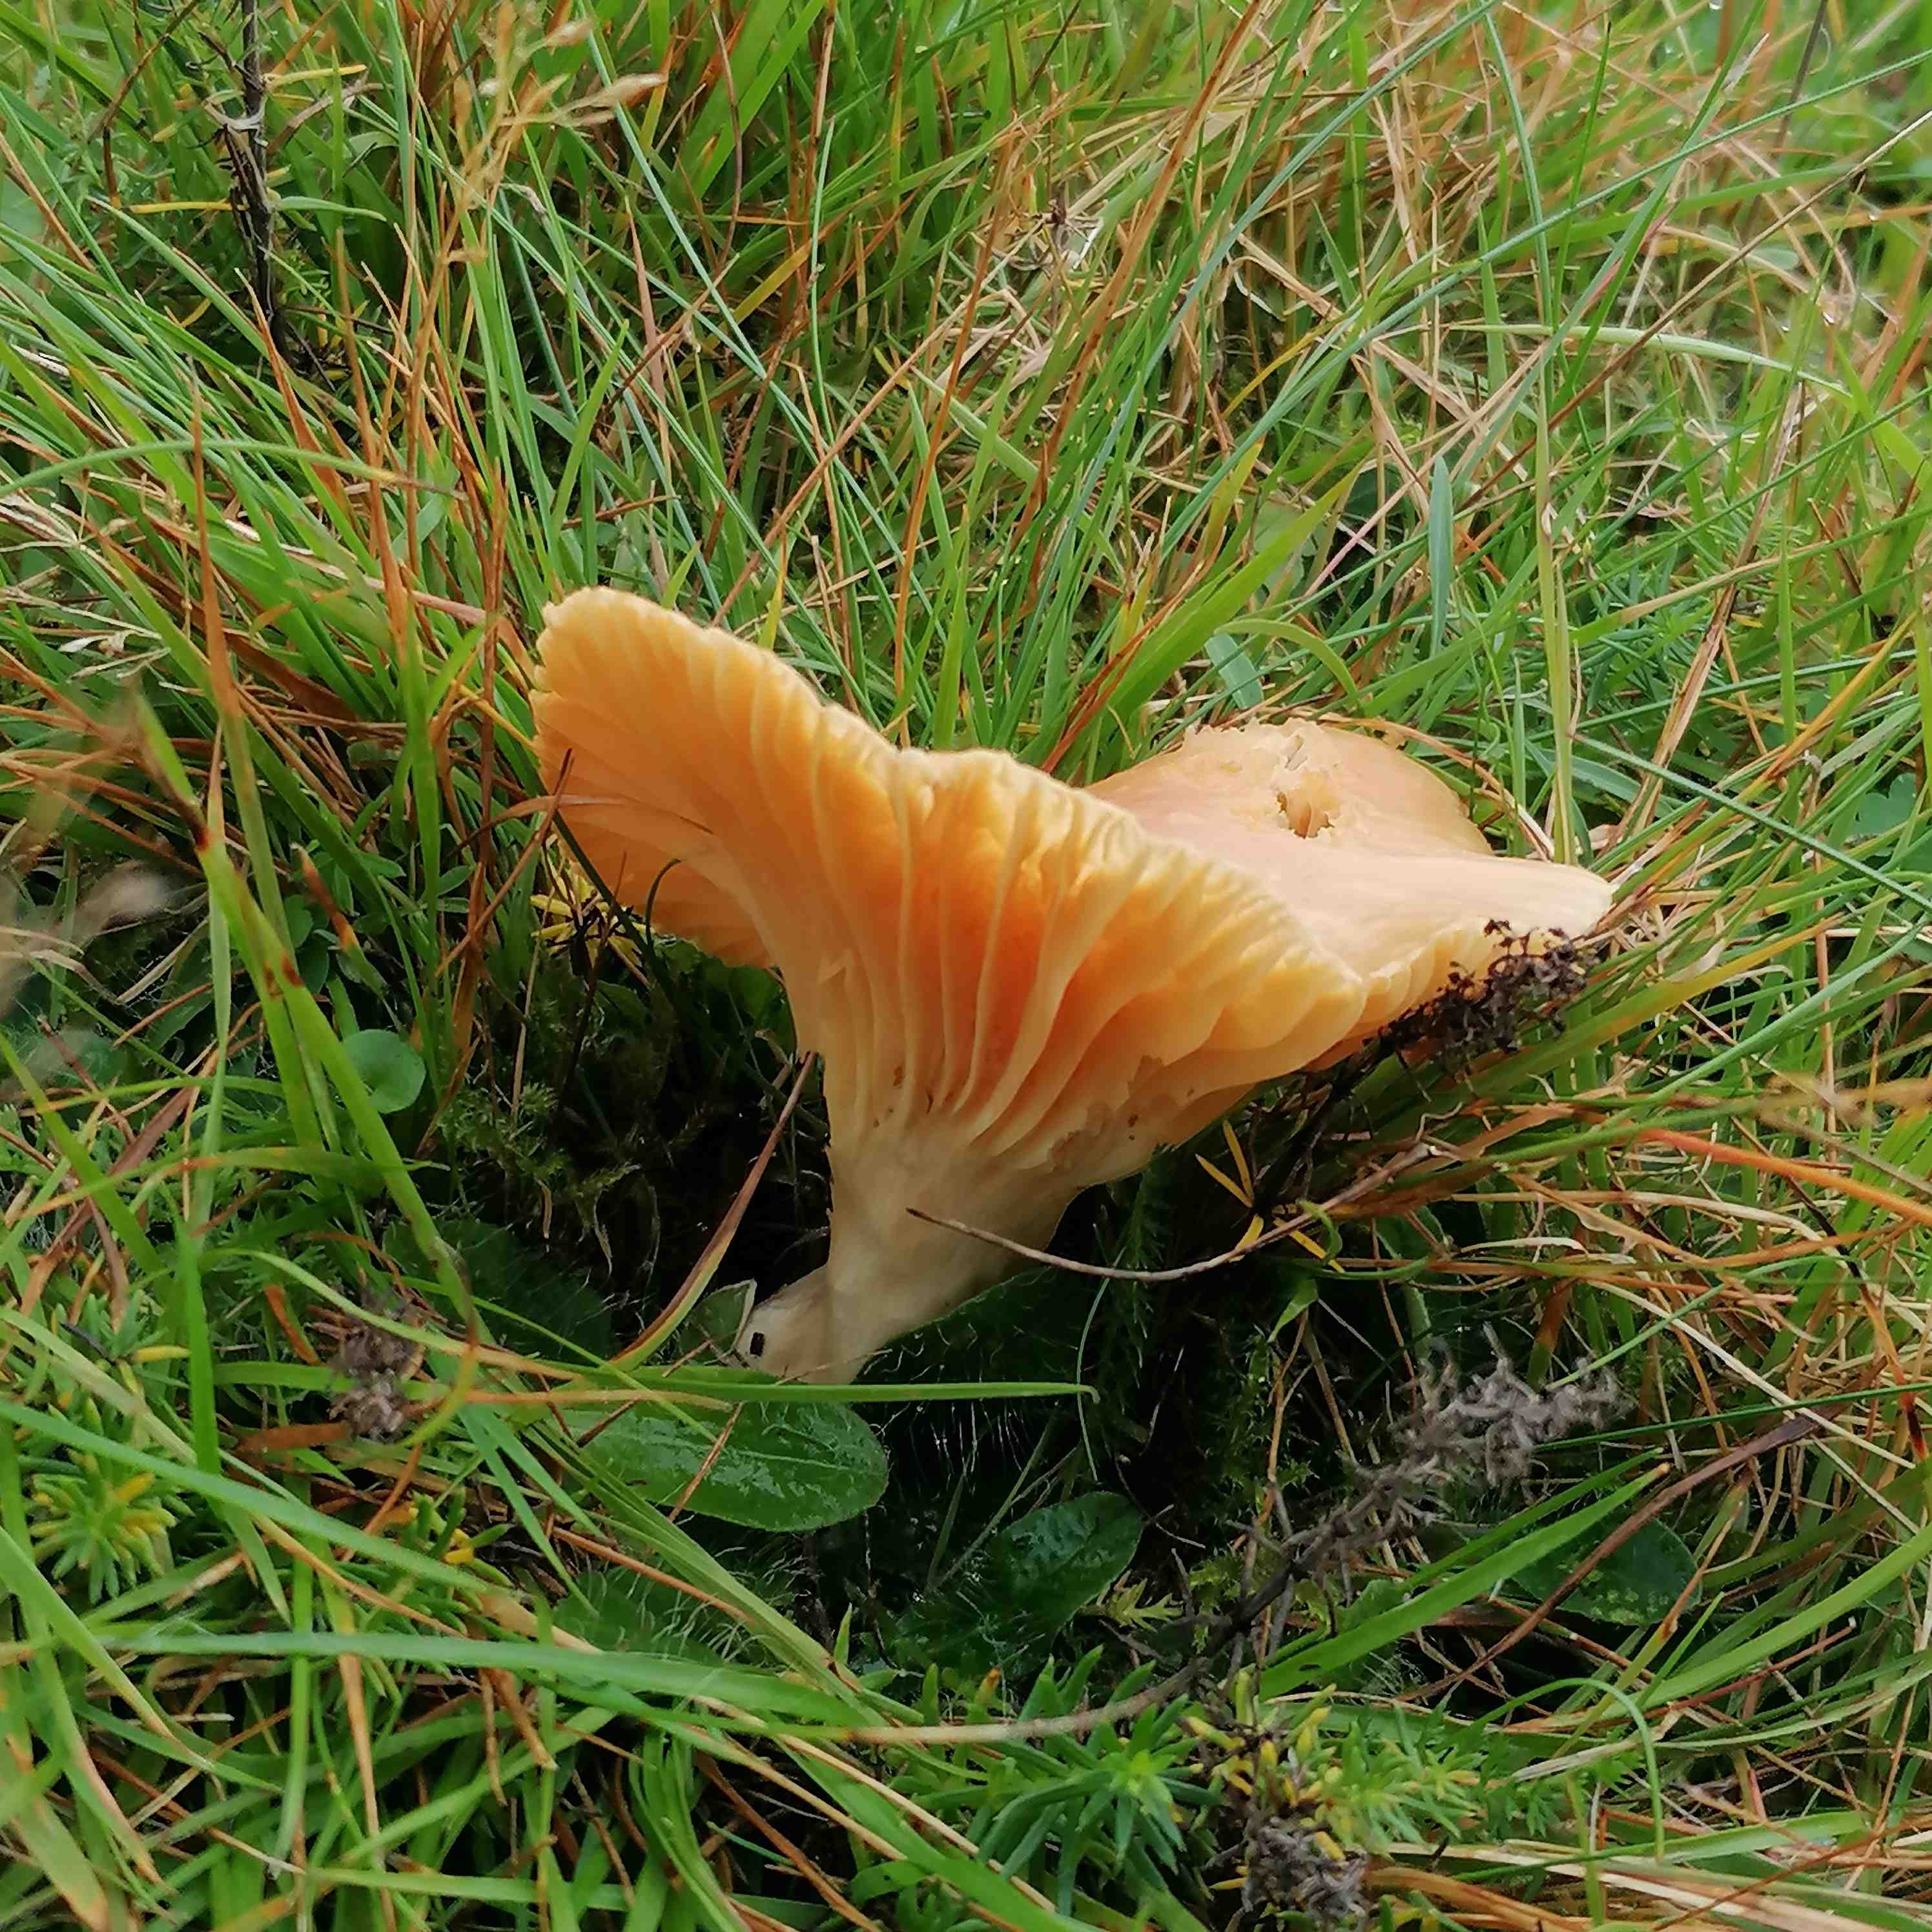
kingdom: Fungi
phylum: Basidiomycota
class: Agaricomycetes
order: Agaricales
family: Hygrophoraceae
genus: Cuphophyllus
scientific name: Cuphophyllus pratensis
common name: eng-vokshat
